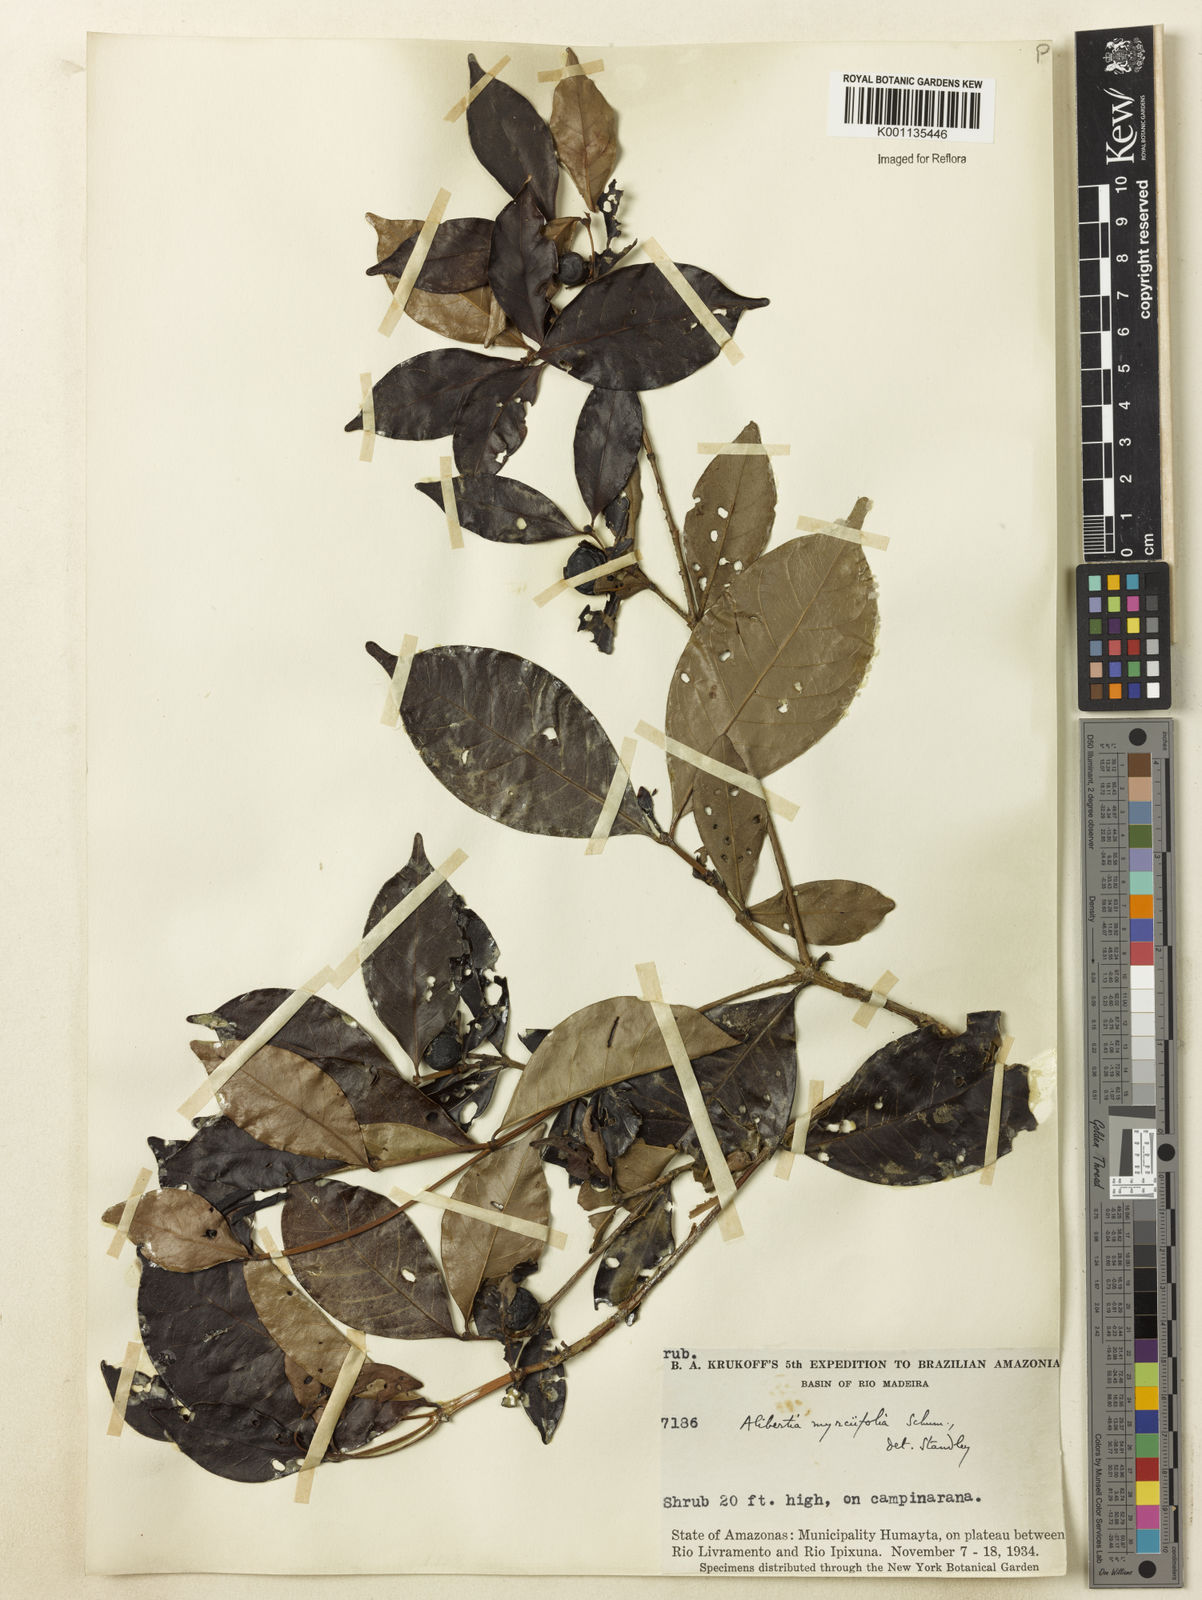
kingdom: Plantae
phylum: Tracheophyta
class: Magnoliopsida
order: Gentianales
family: Rubiaceae
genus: Cordiera
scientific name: Cordiera myrciifolia
